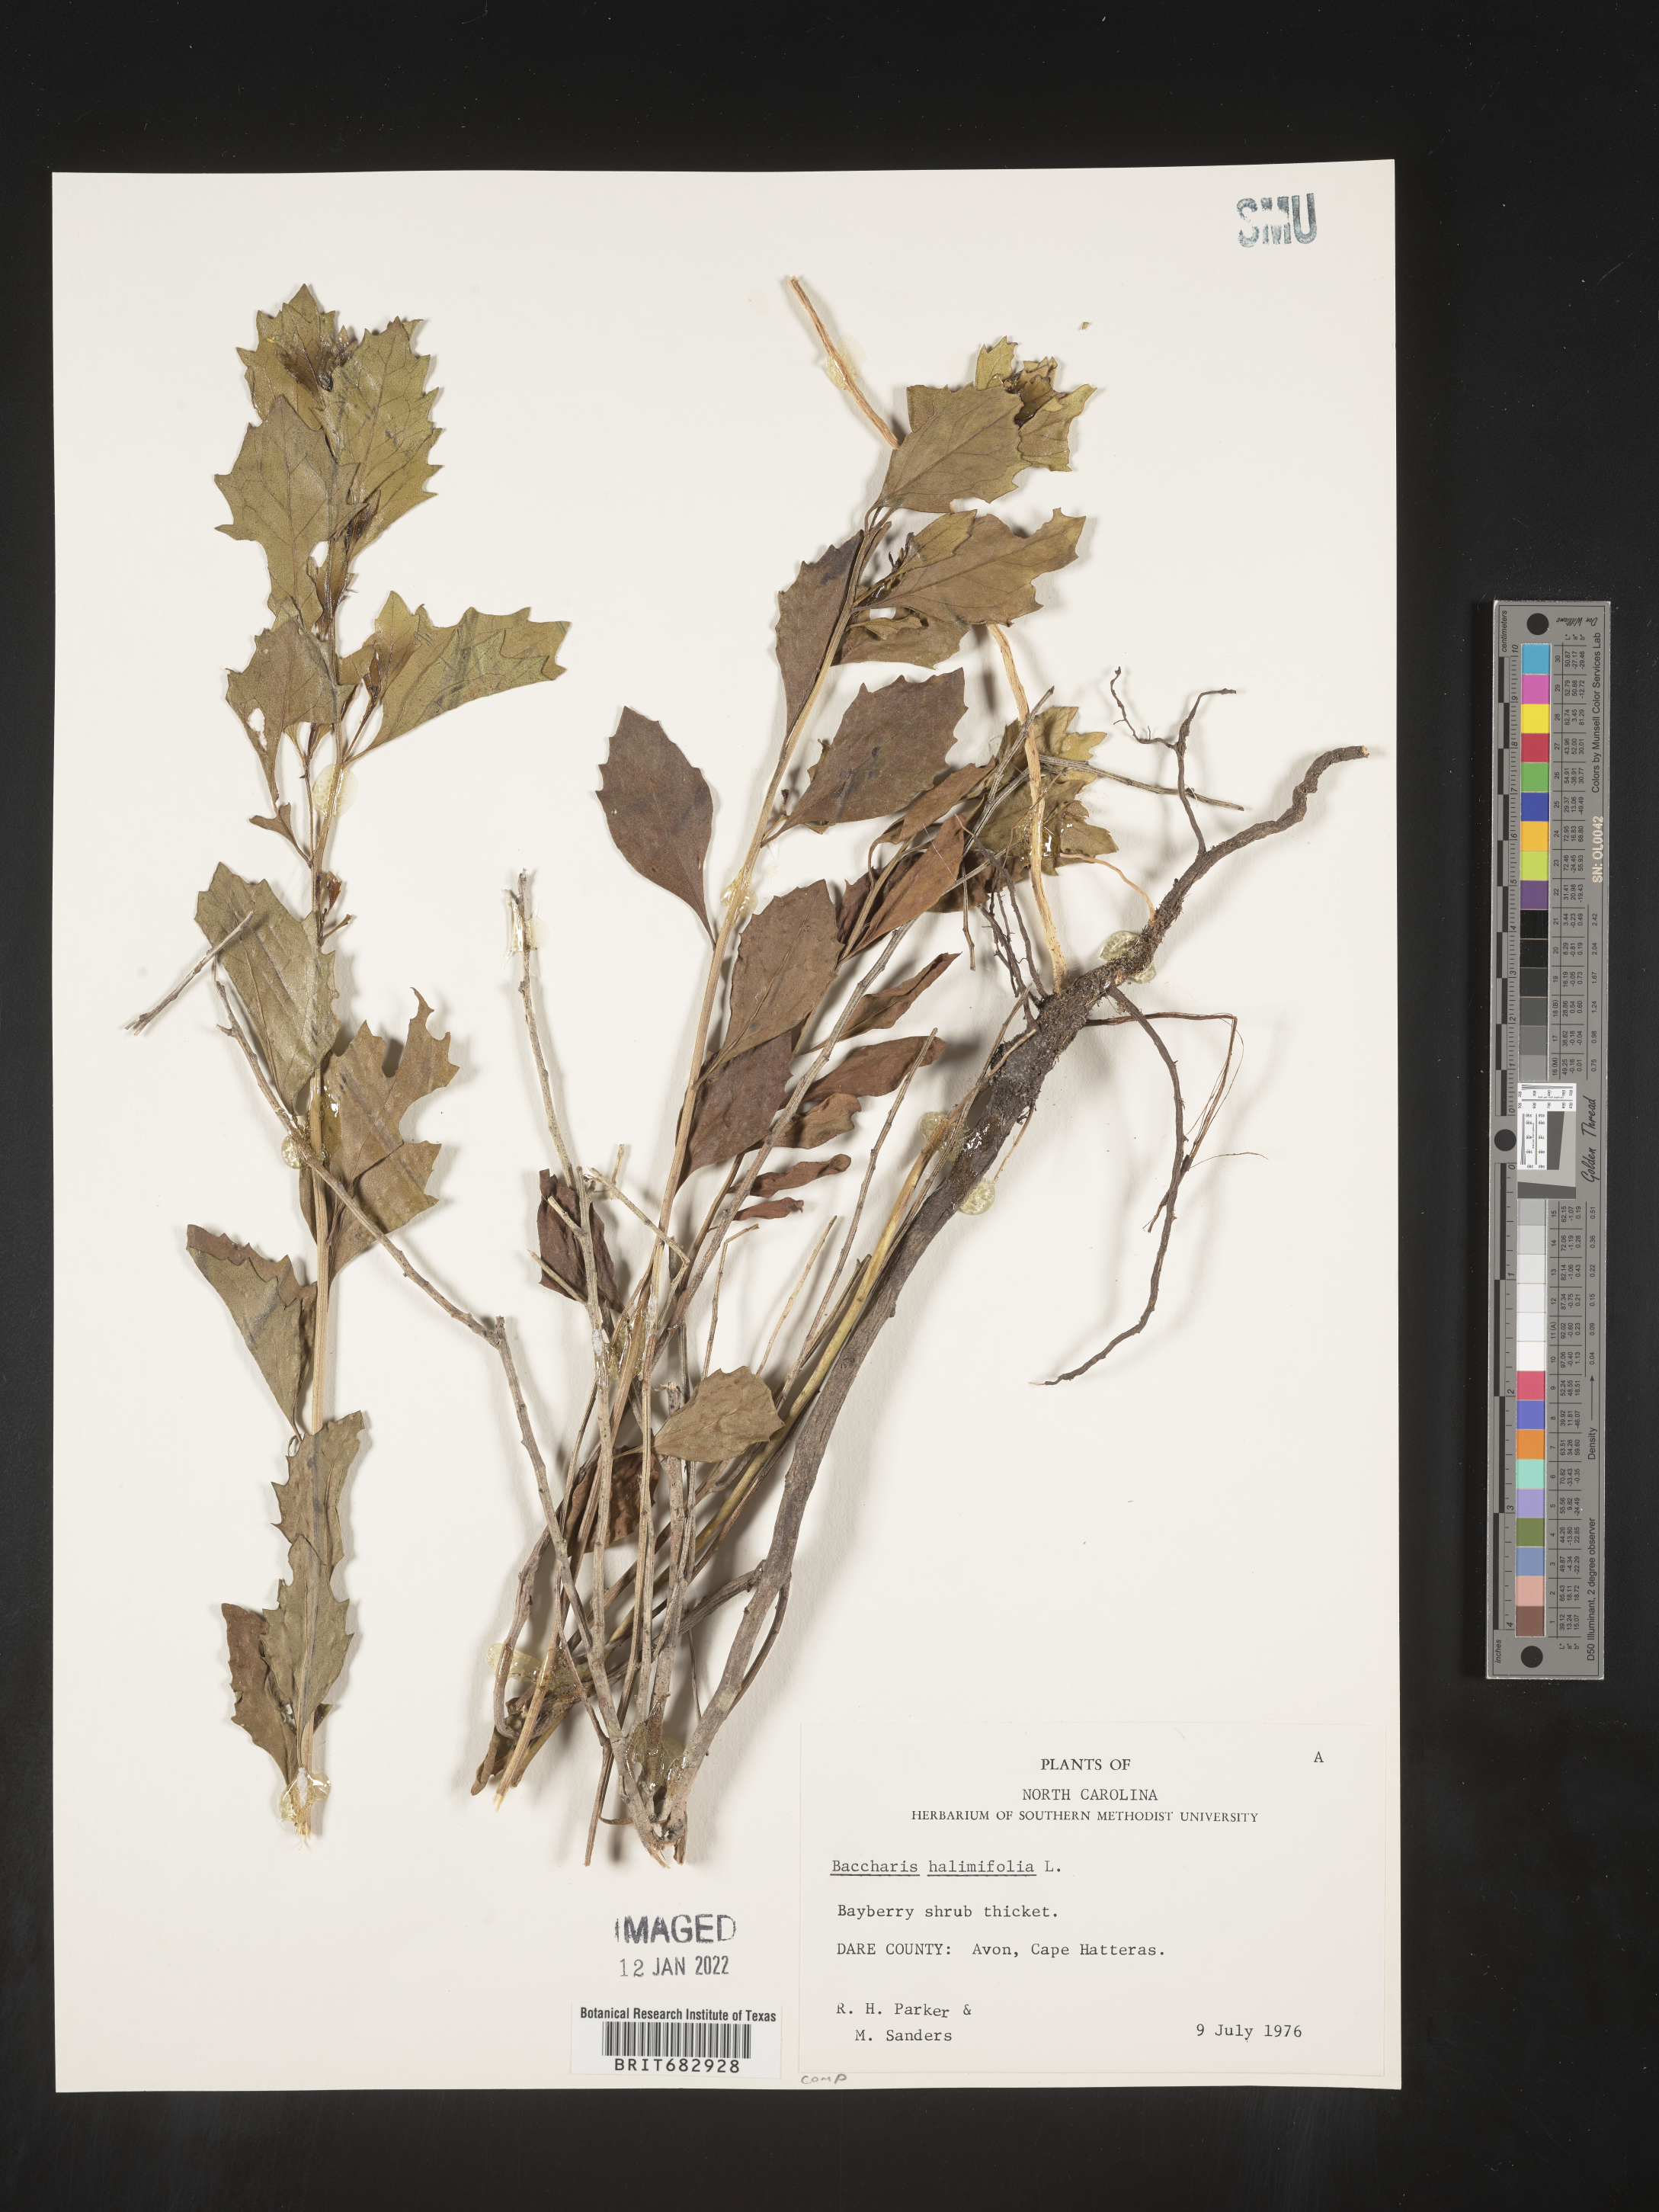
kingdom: Plantae
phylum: Tracheophyta
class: Magnoliopsida
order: Asterales
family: Asteraceae
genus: Nidorella
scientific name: Nidorella ivifolia
